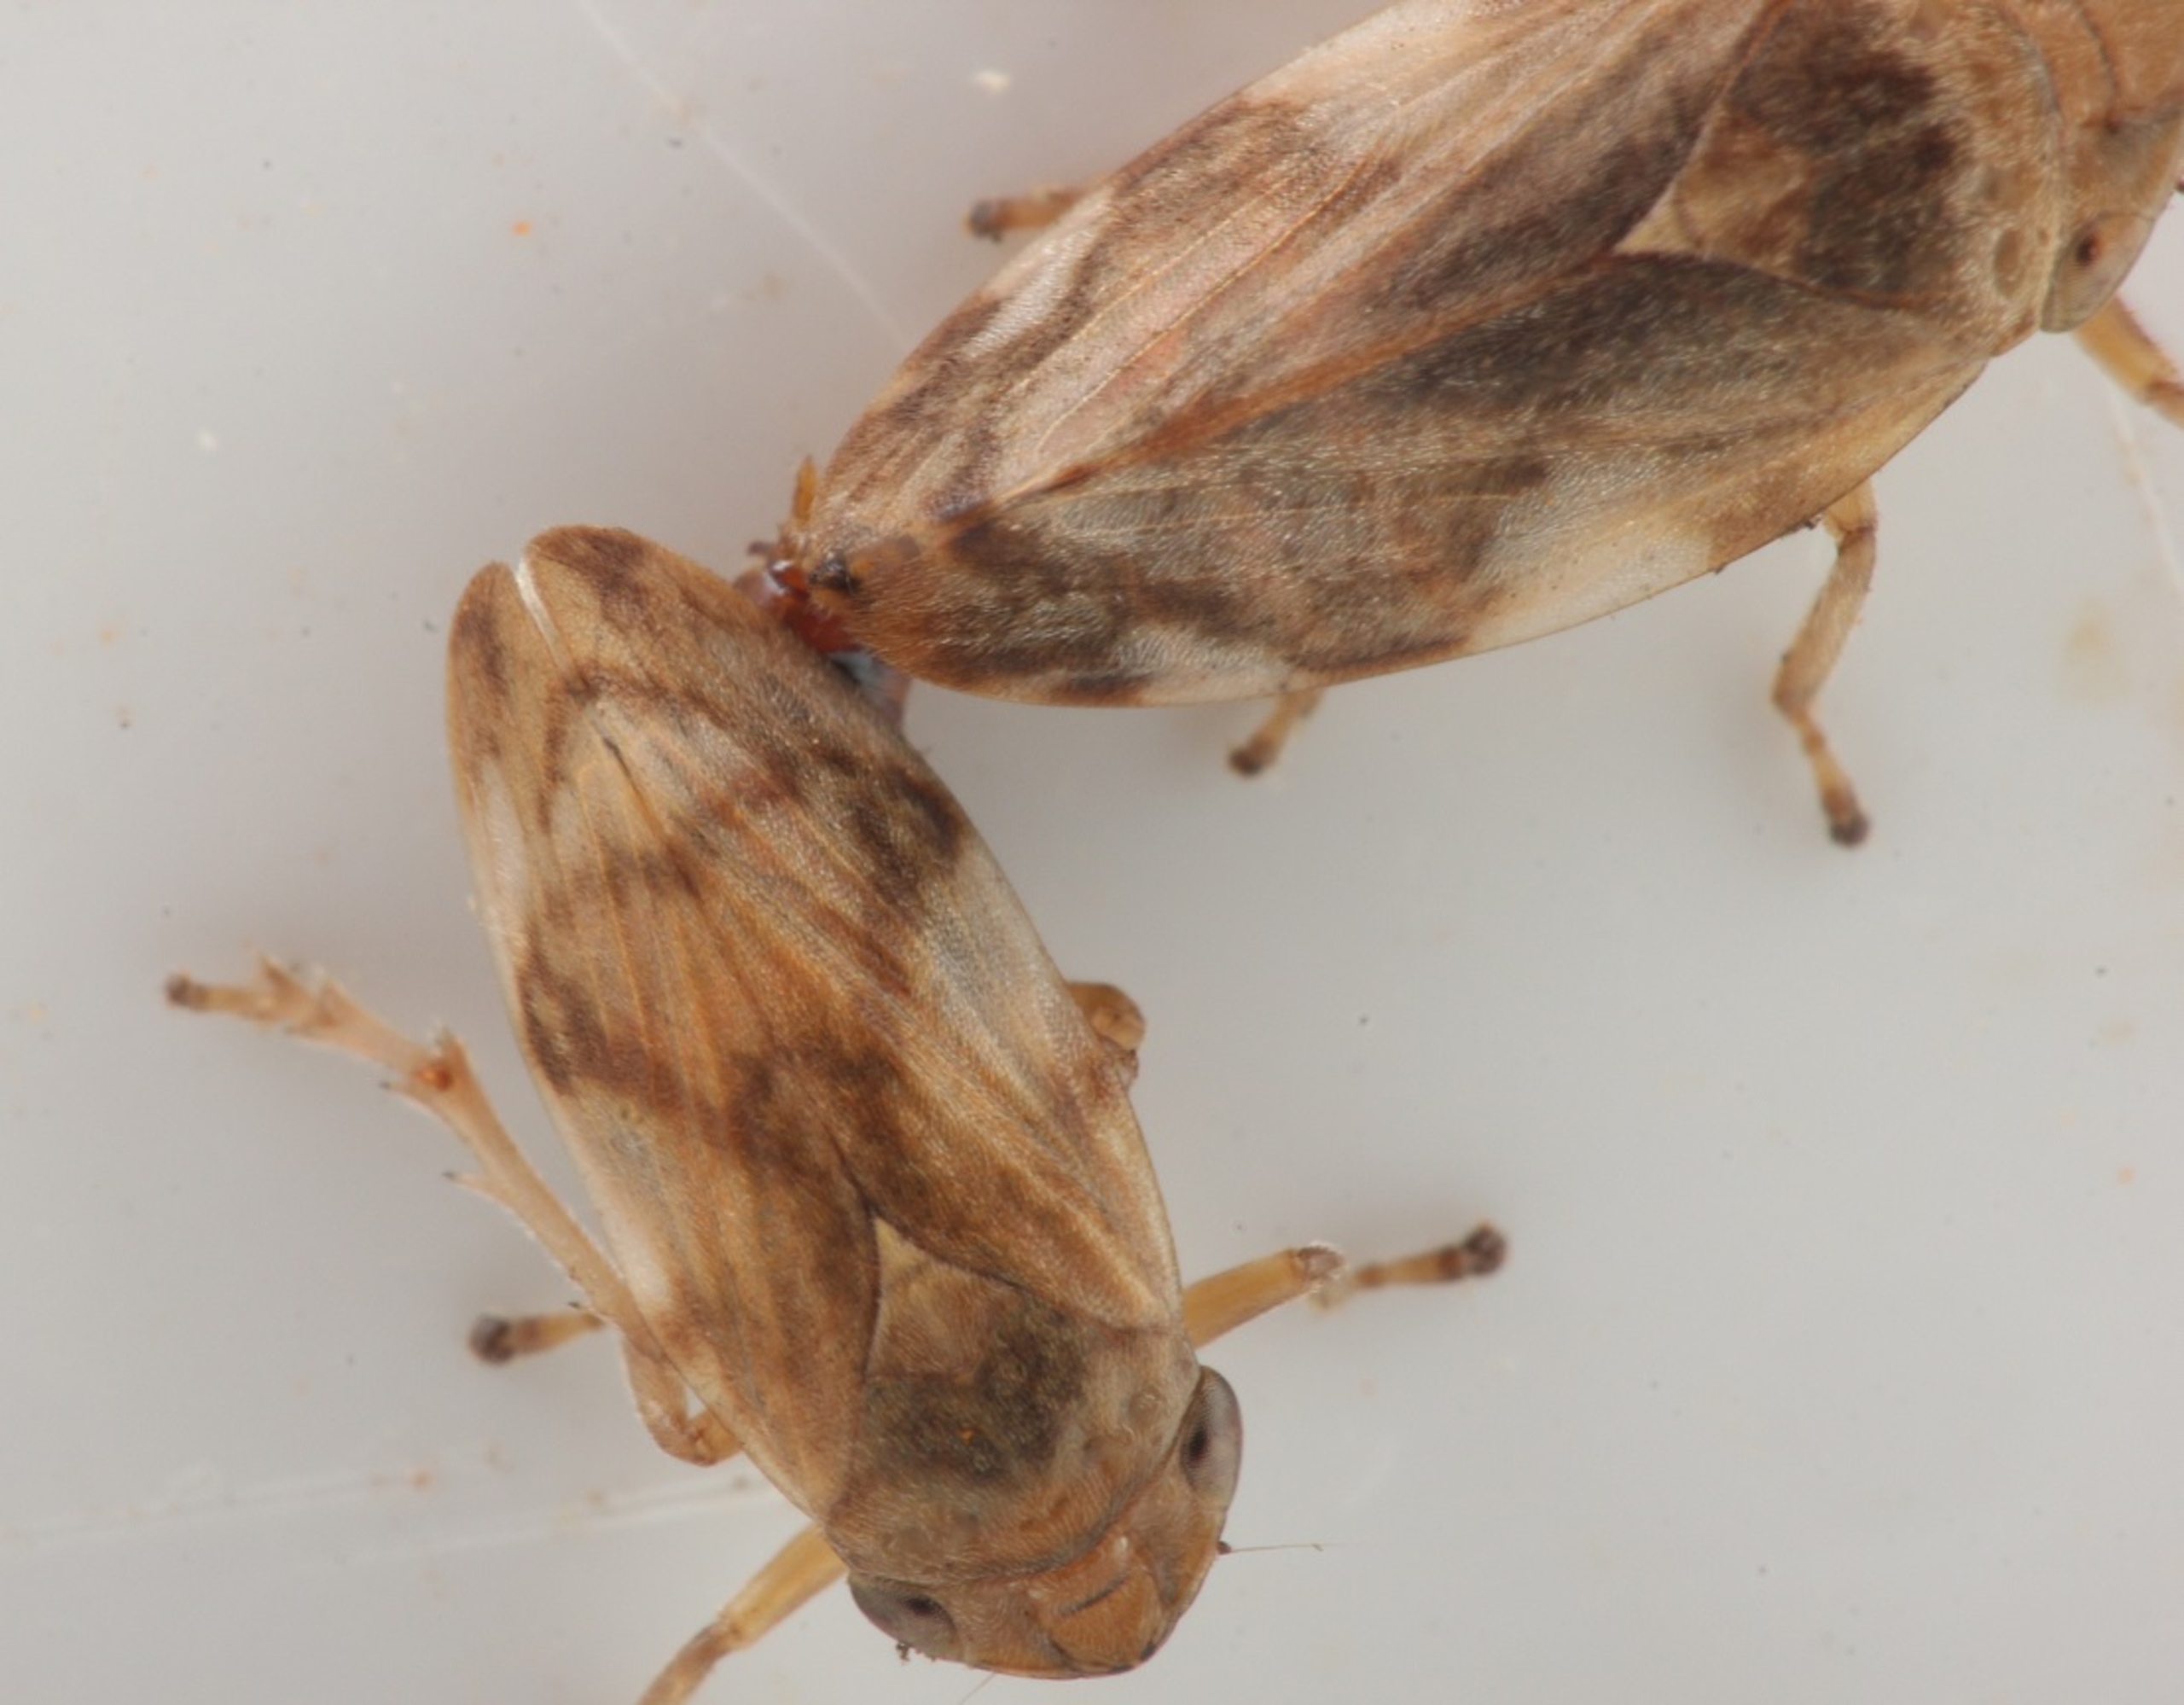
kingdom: Animalia
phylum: Arthropoda
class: Insecta
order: Hemiptera
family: Aphrophoridae
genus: Philaenus
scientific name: Philaenus spumarius
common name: Almindelig skumcikade
